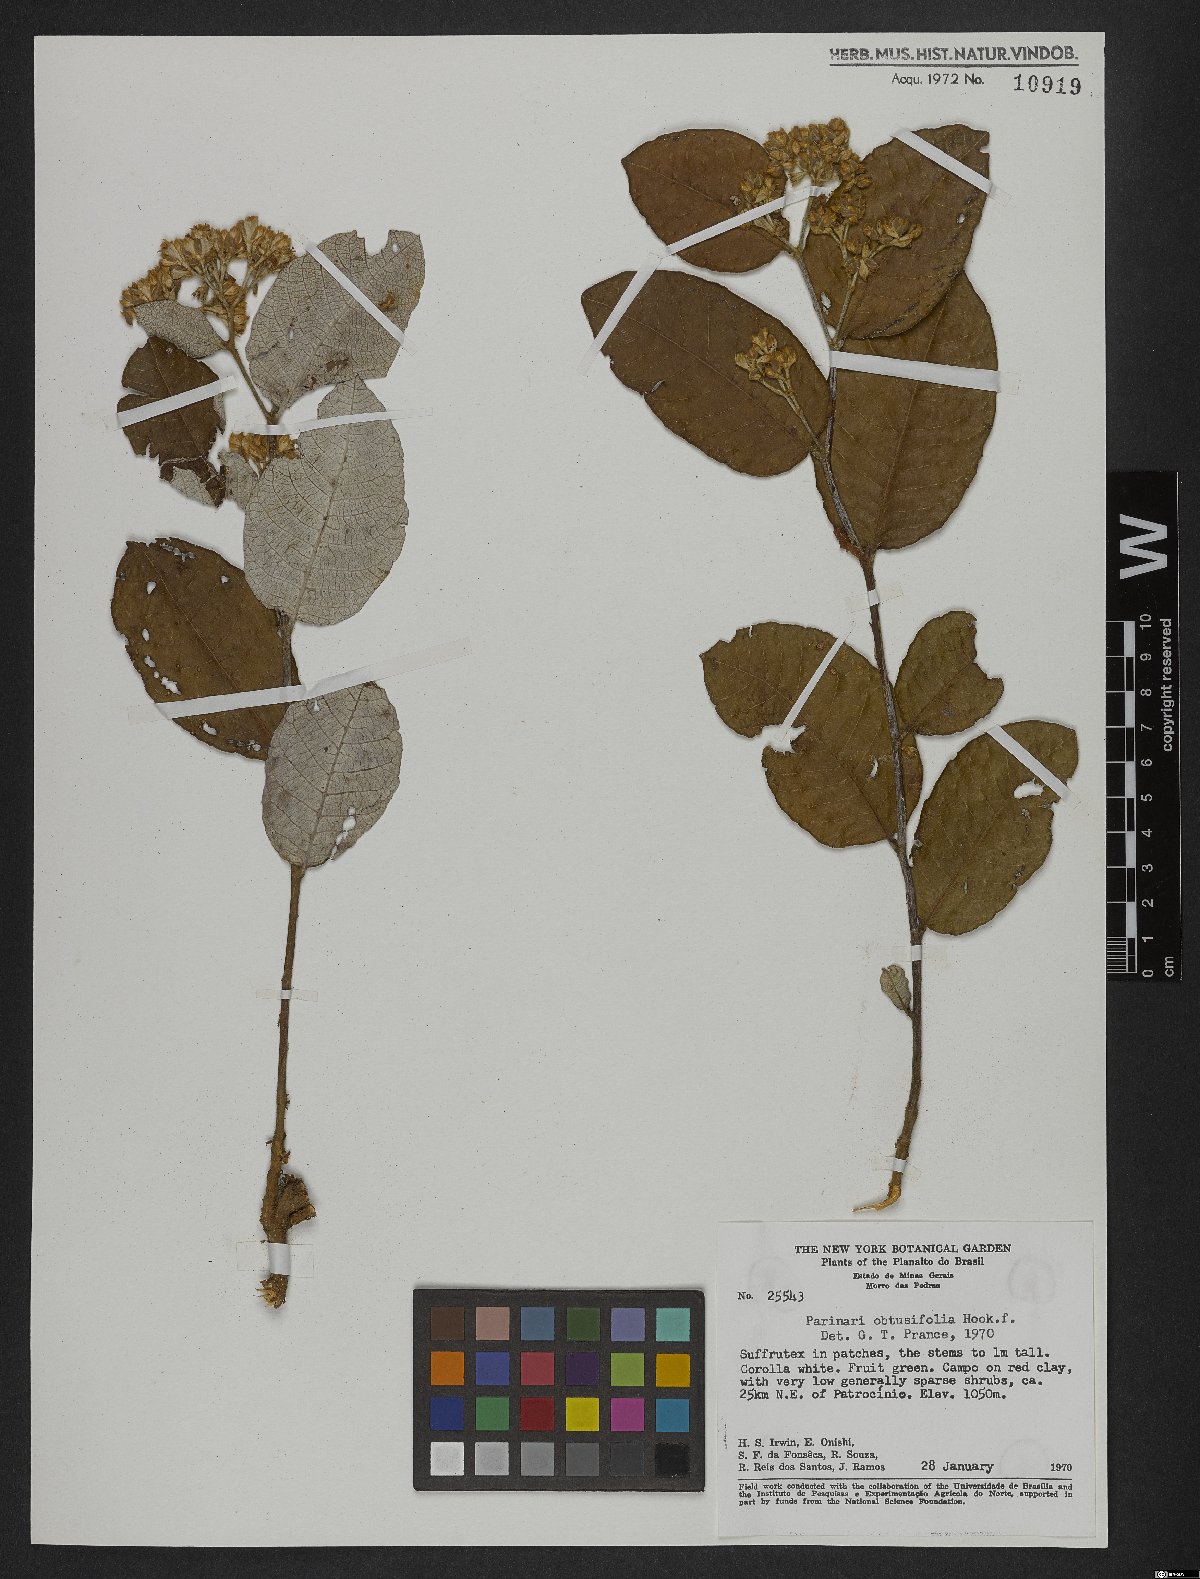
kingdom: Plantae
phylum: Tracheophyta
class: Magnoliopsida
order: Malpighiales
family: Chrysobalanaceae
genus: Parinari
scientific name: Parinari obtusifolium
